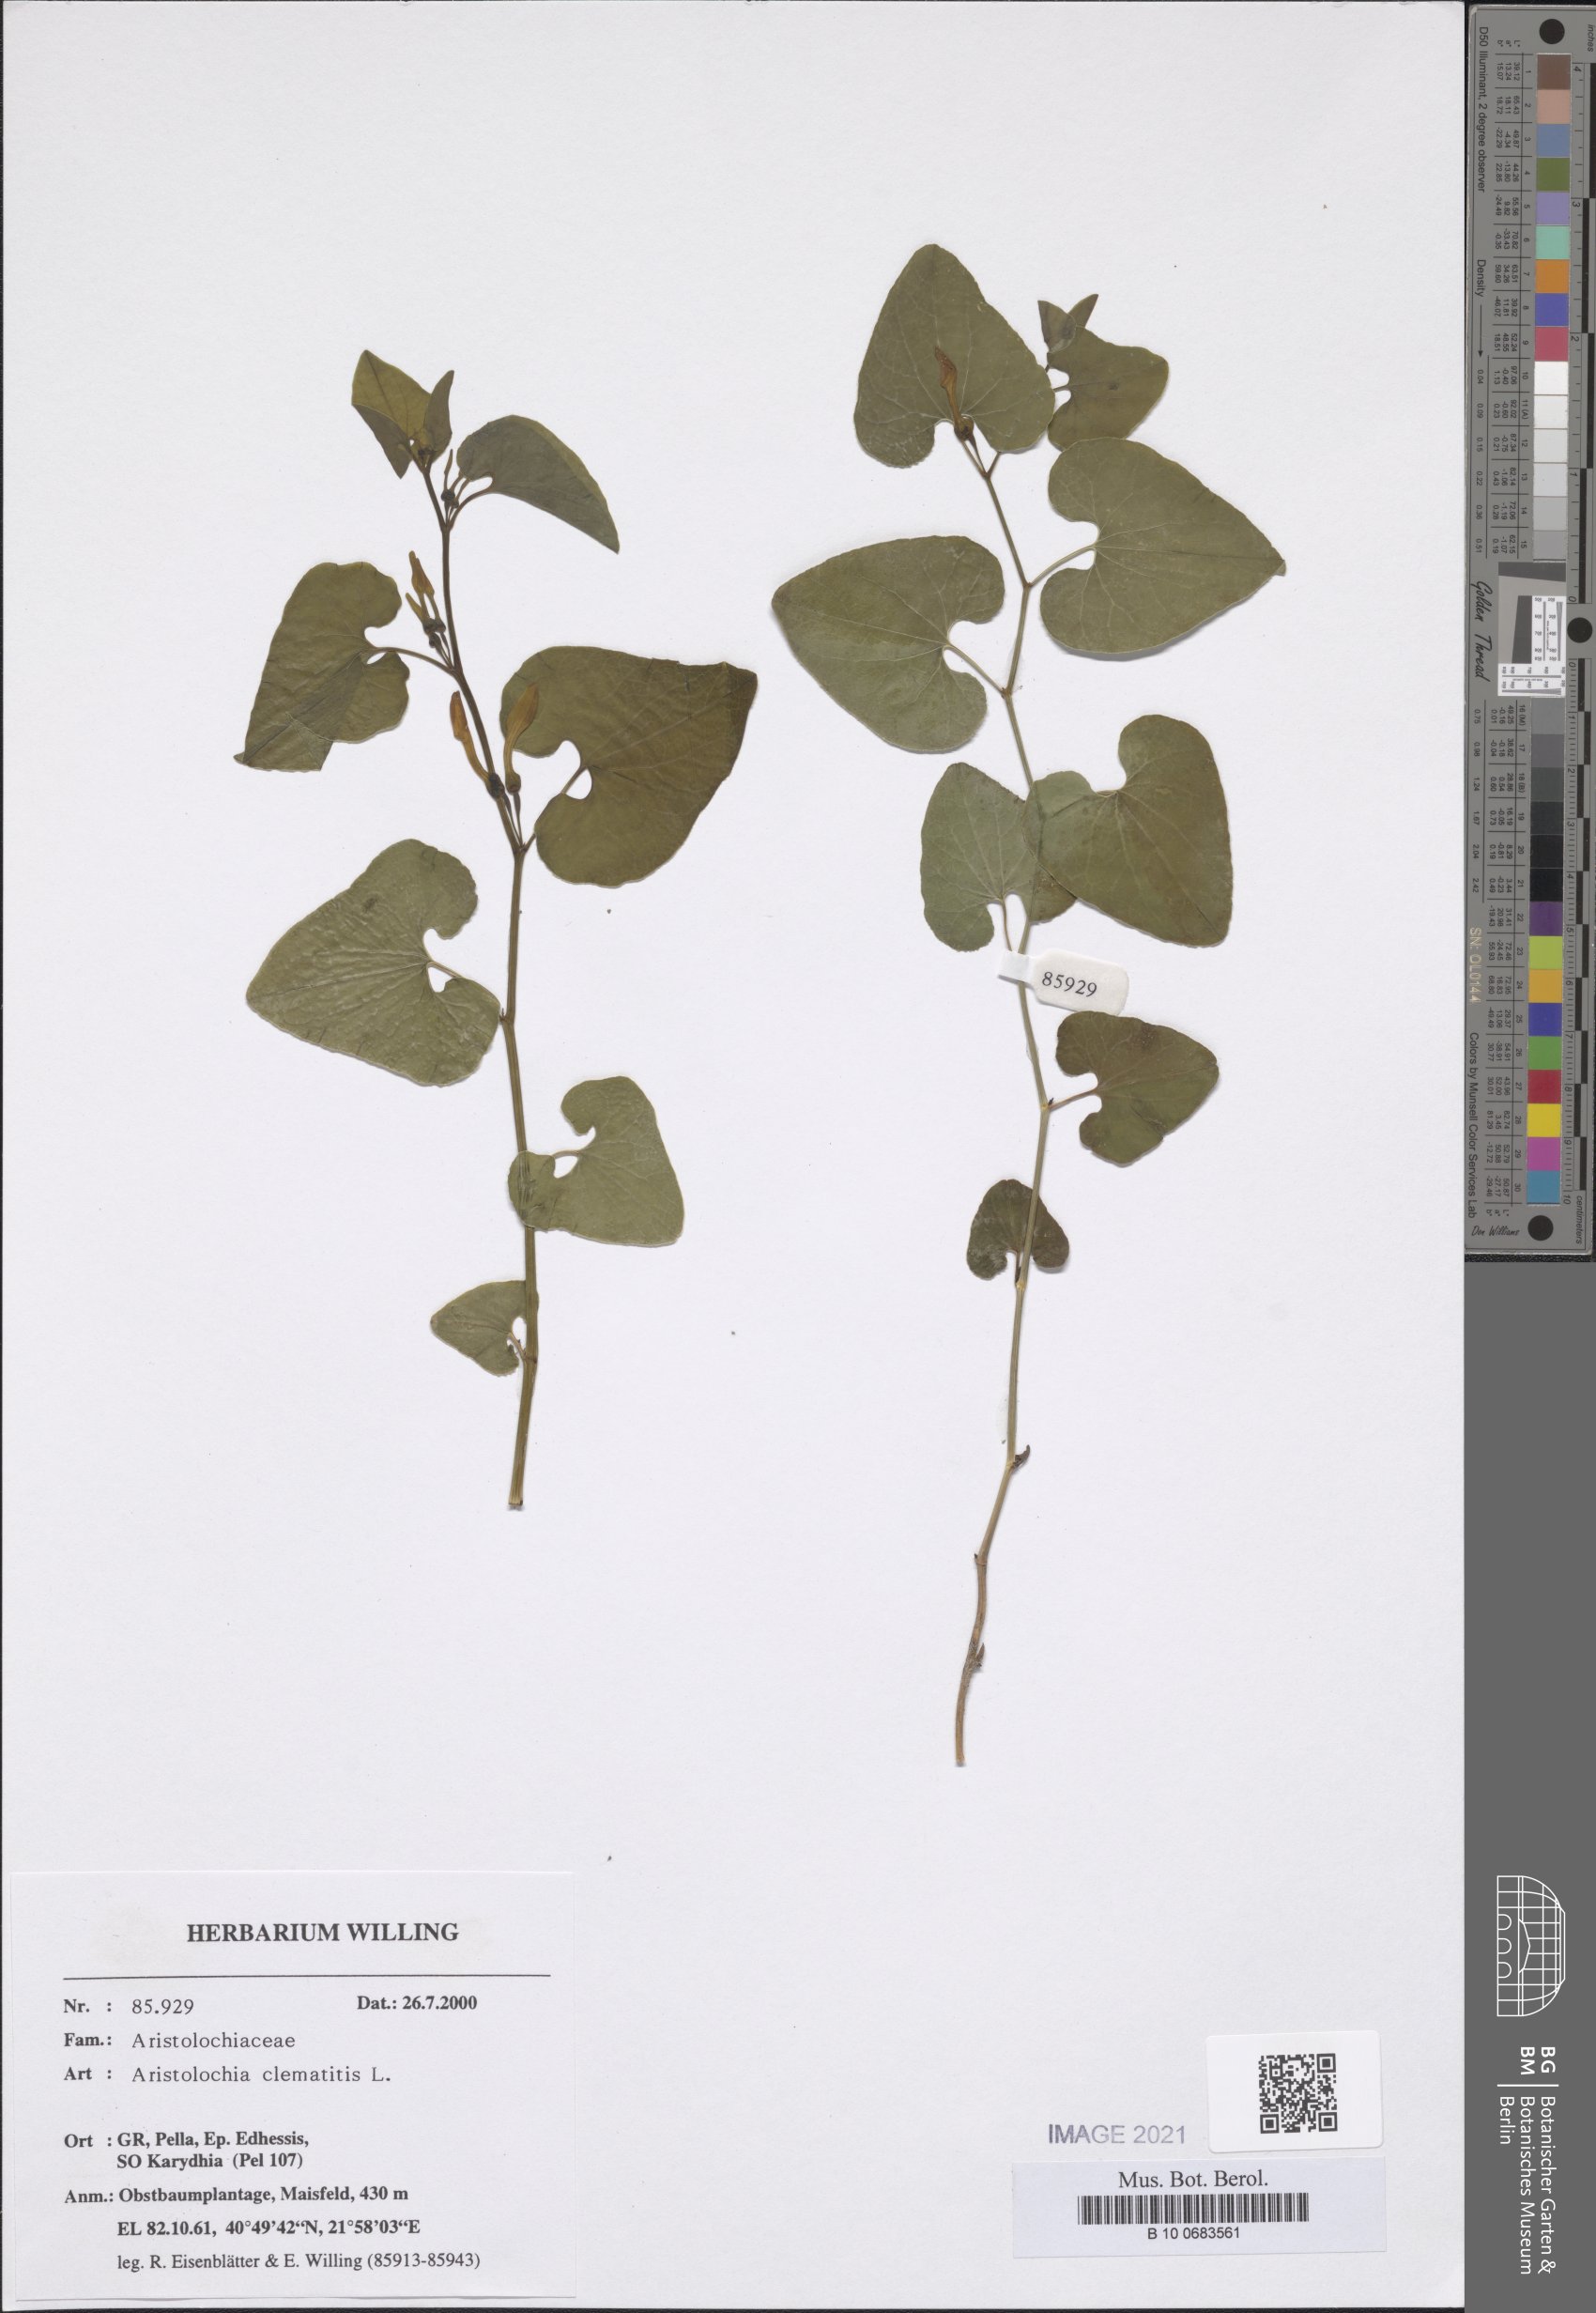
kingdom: Plantae
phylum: Tracheophyta
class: Magnoliopsida
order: Piperales
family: Aristolochiaceae
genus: Aristolochia
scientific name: Aristolochia clematitis
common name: Birthwort
